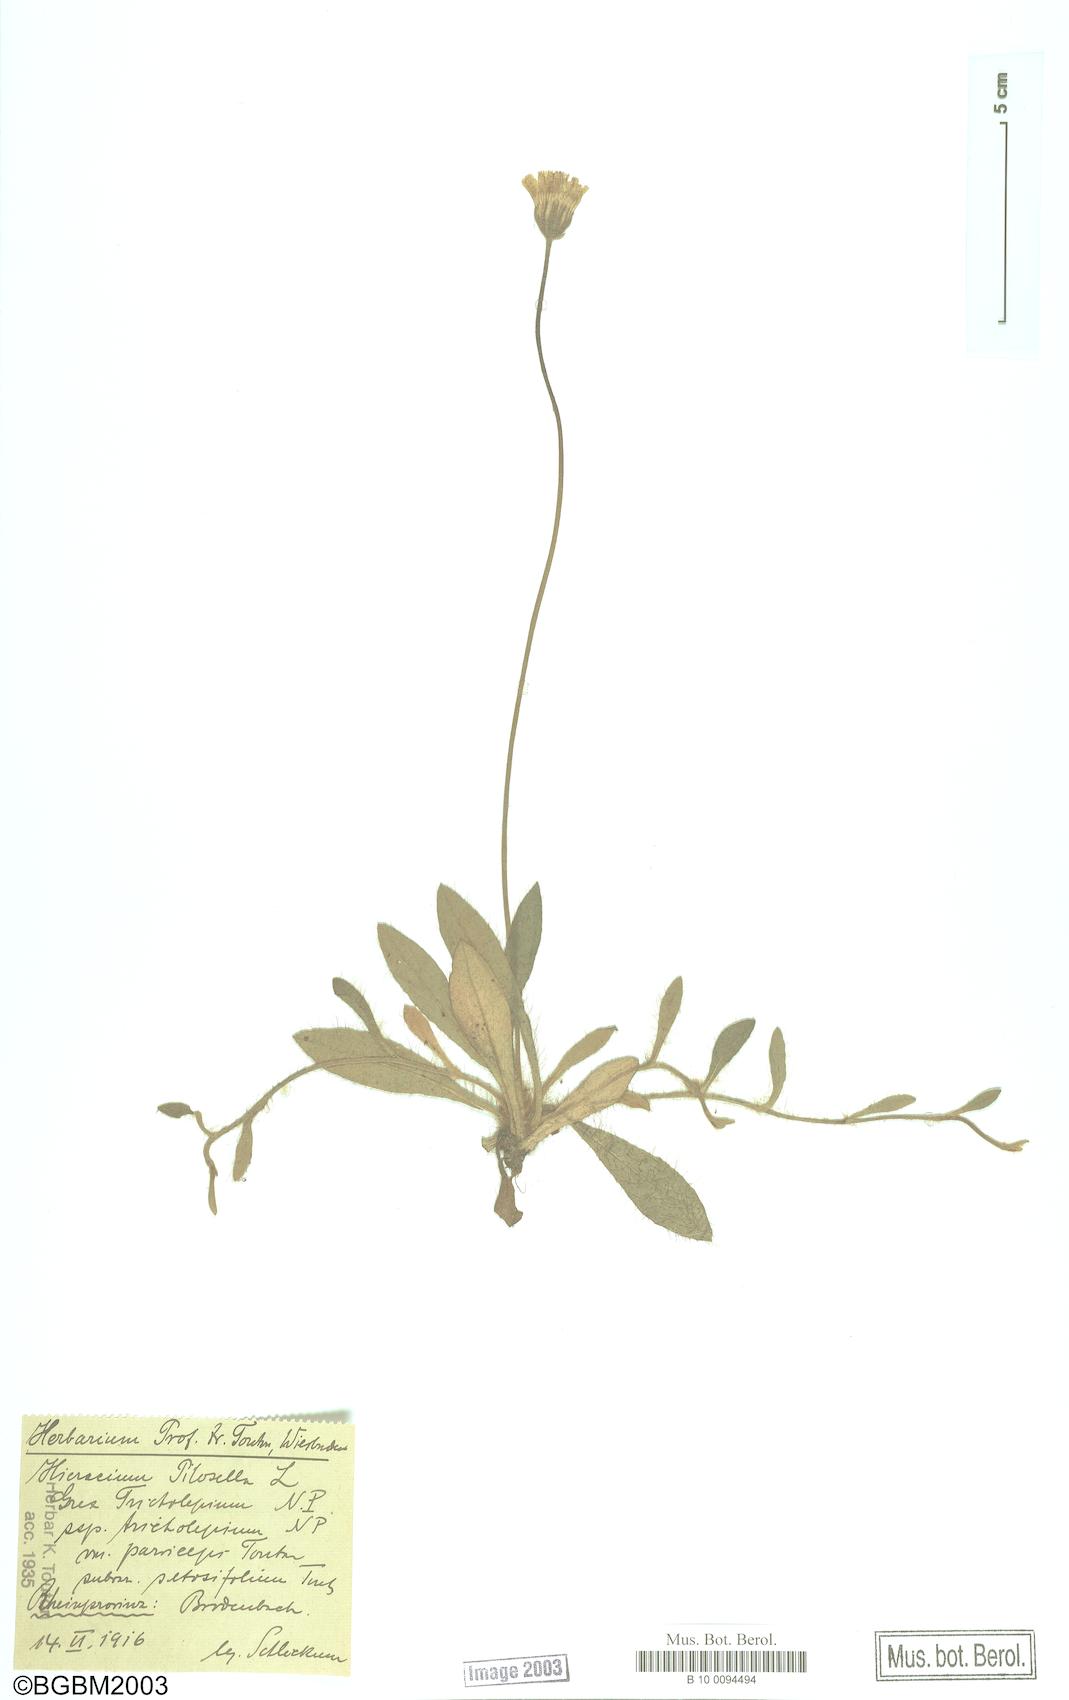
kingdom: Plantae
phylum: Tracheophyta
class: Magnoliopsida
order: Asterales
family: Asteraceae
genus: Pilosella
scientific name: Pilosella officinarum
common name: Mouse-ear hawkweed
